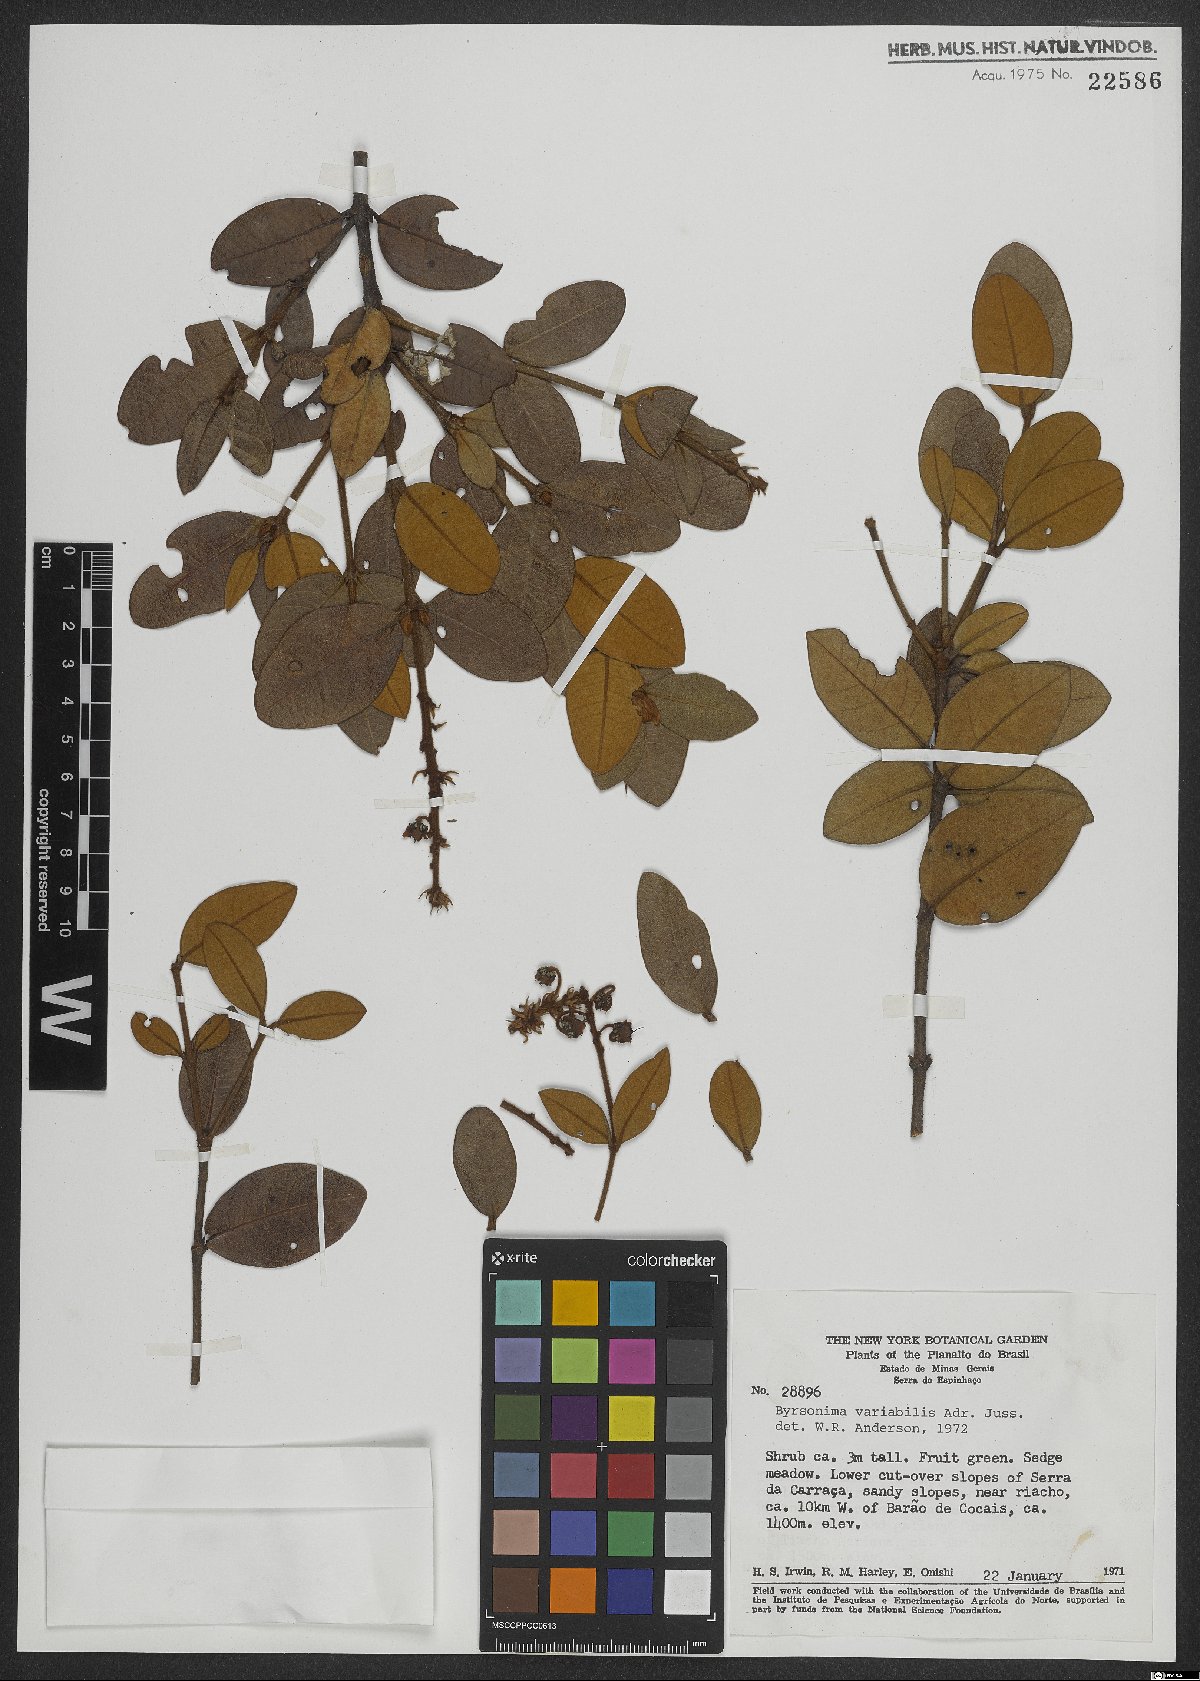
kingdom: Plantae
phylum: Tracheophyta
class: Magnoliopsida
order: Malpighiales
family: Malpighiaceae
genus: Byrsonima
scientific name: Byrsonima variabilis
